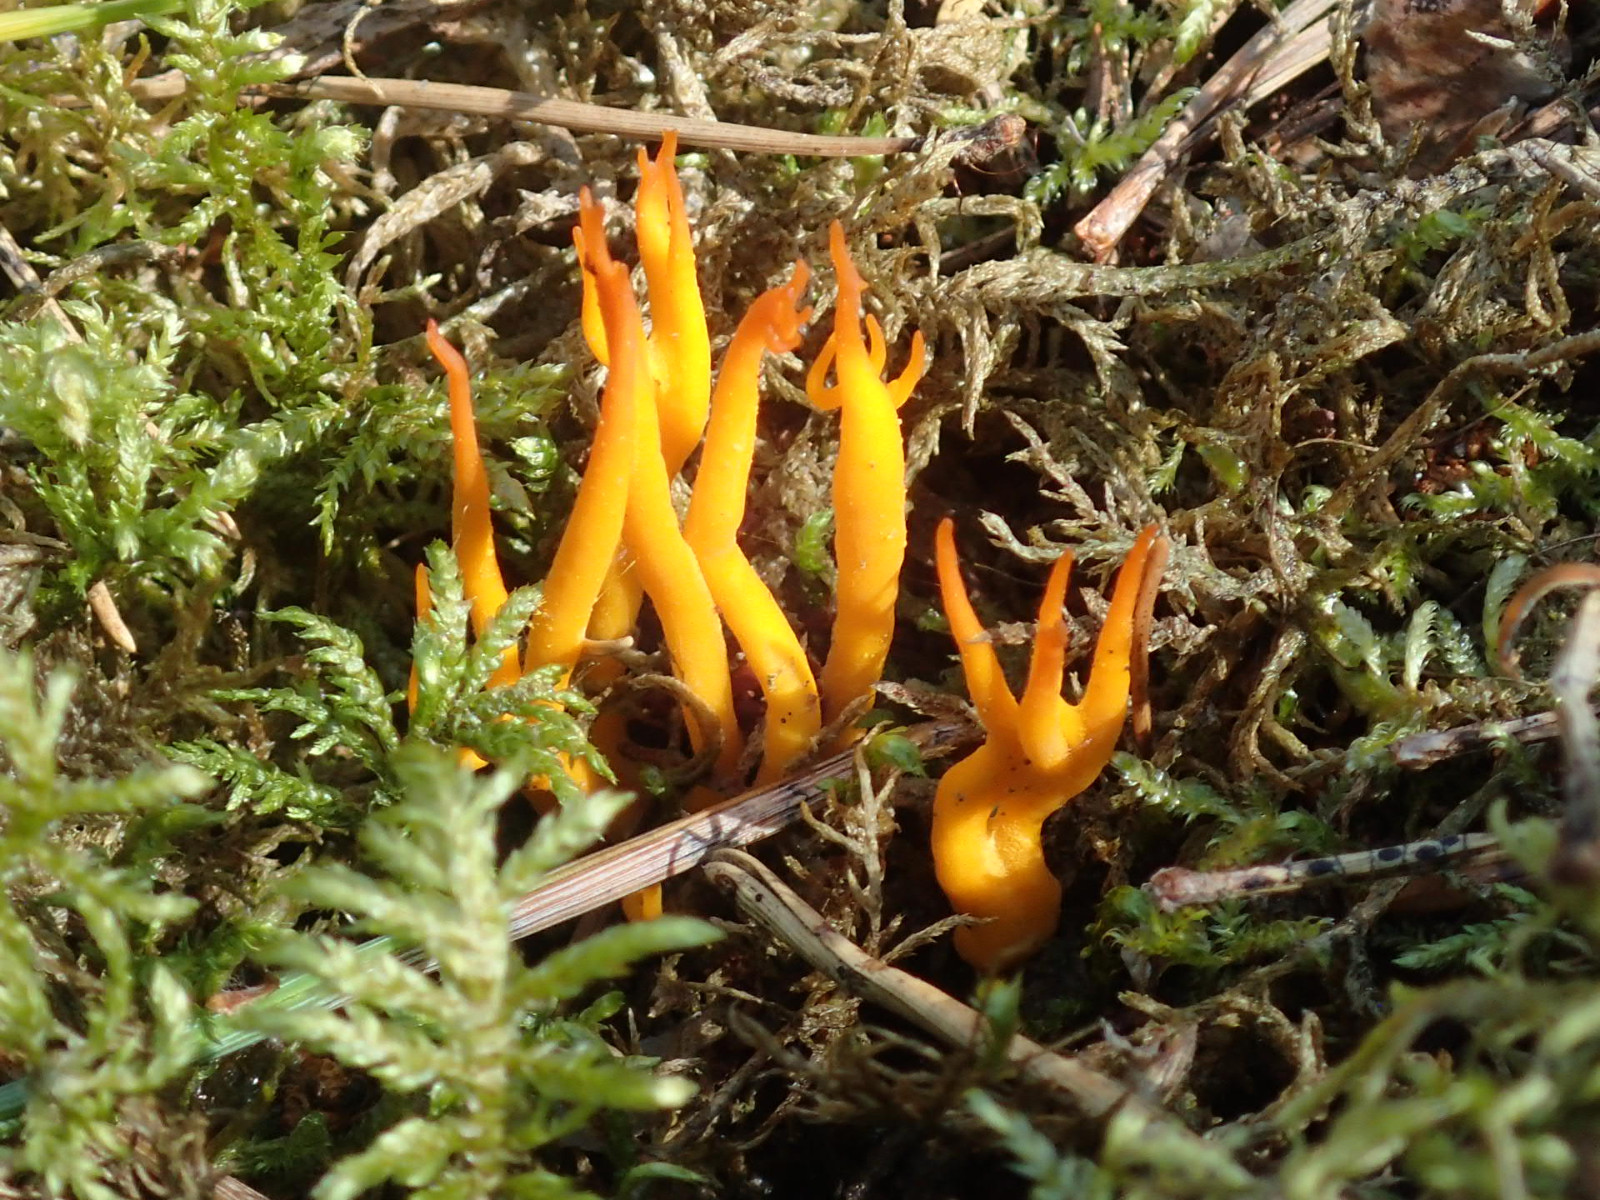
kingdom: Fungi
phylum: Basidiomycota
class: Dacrymycetes
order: Dacrymycetales
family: Dacrymycetaceae
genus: Calocera
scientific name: Calocera viscosa
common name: almindelig guldgaffel
